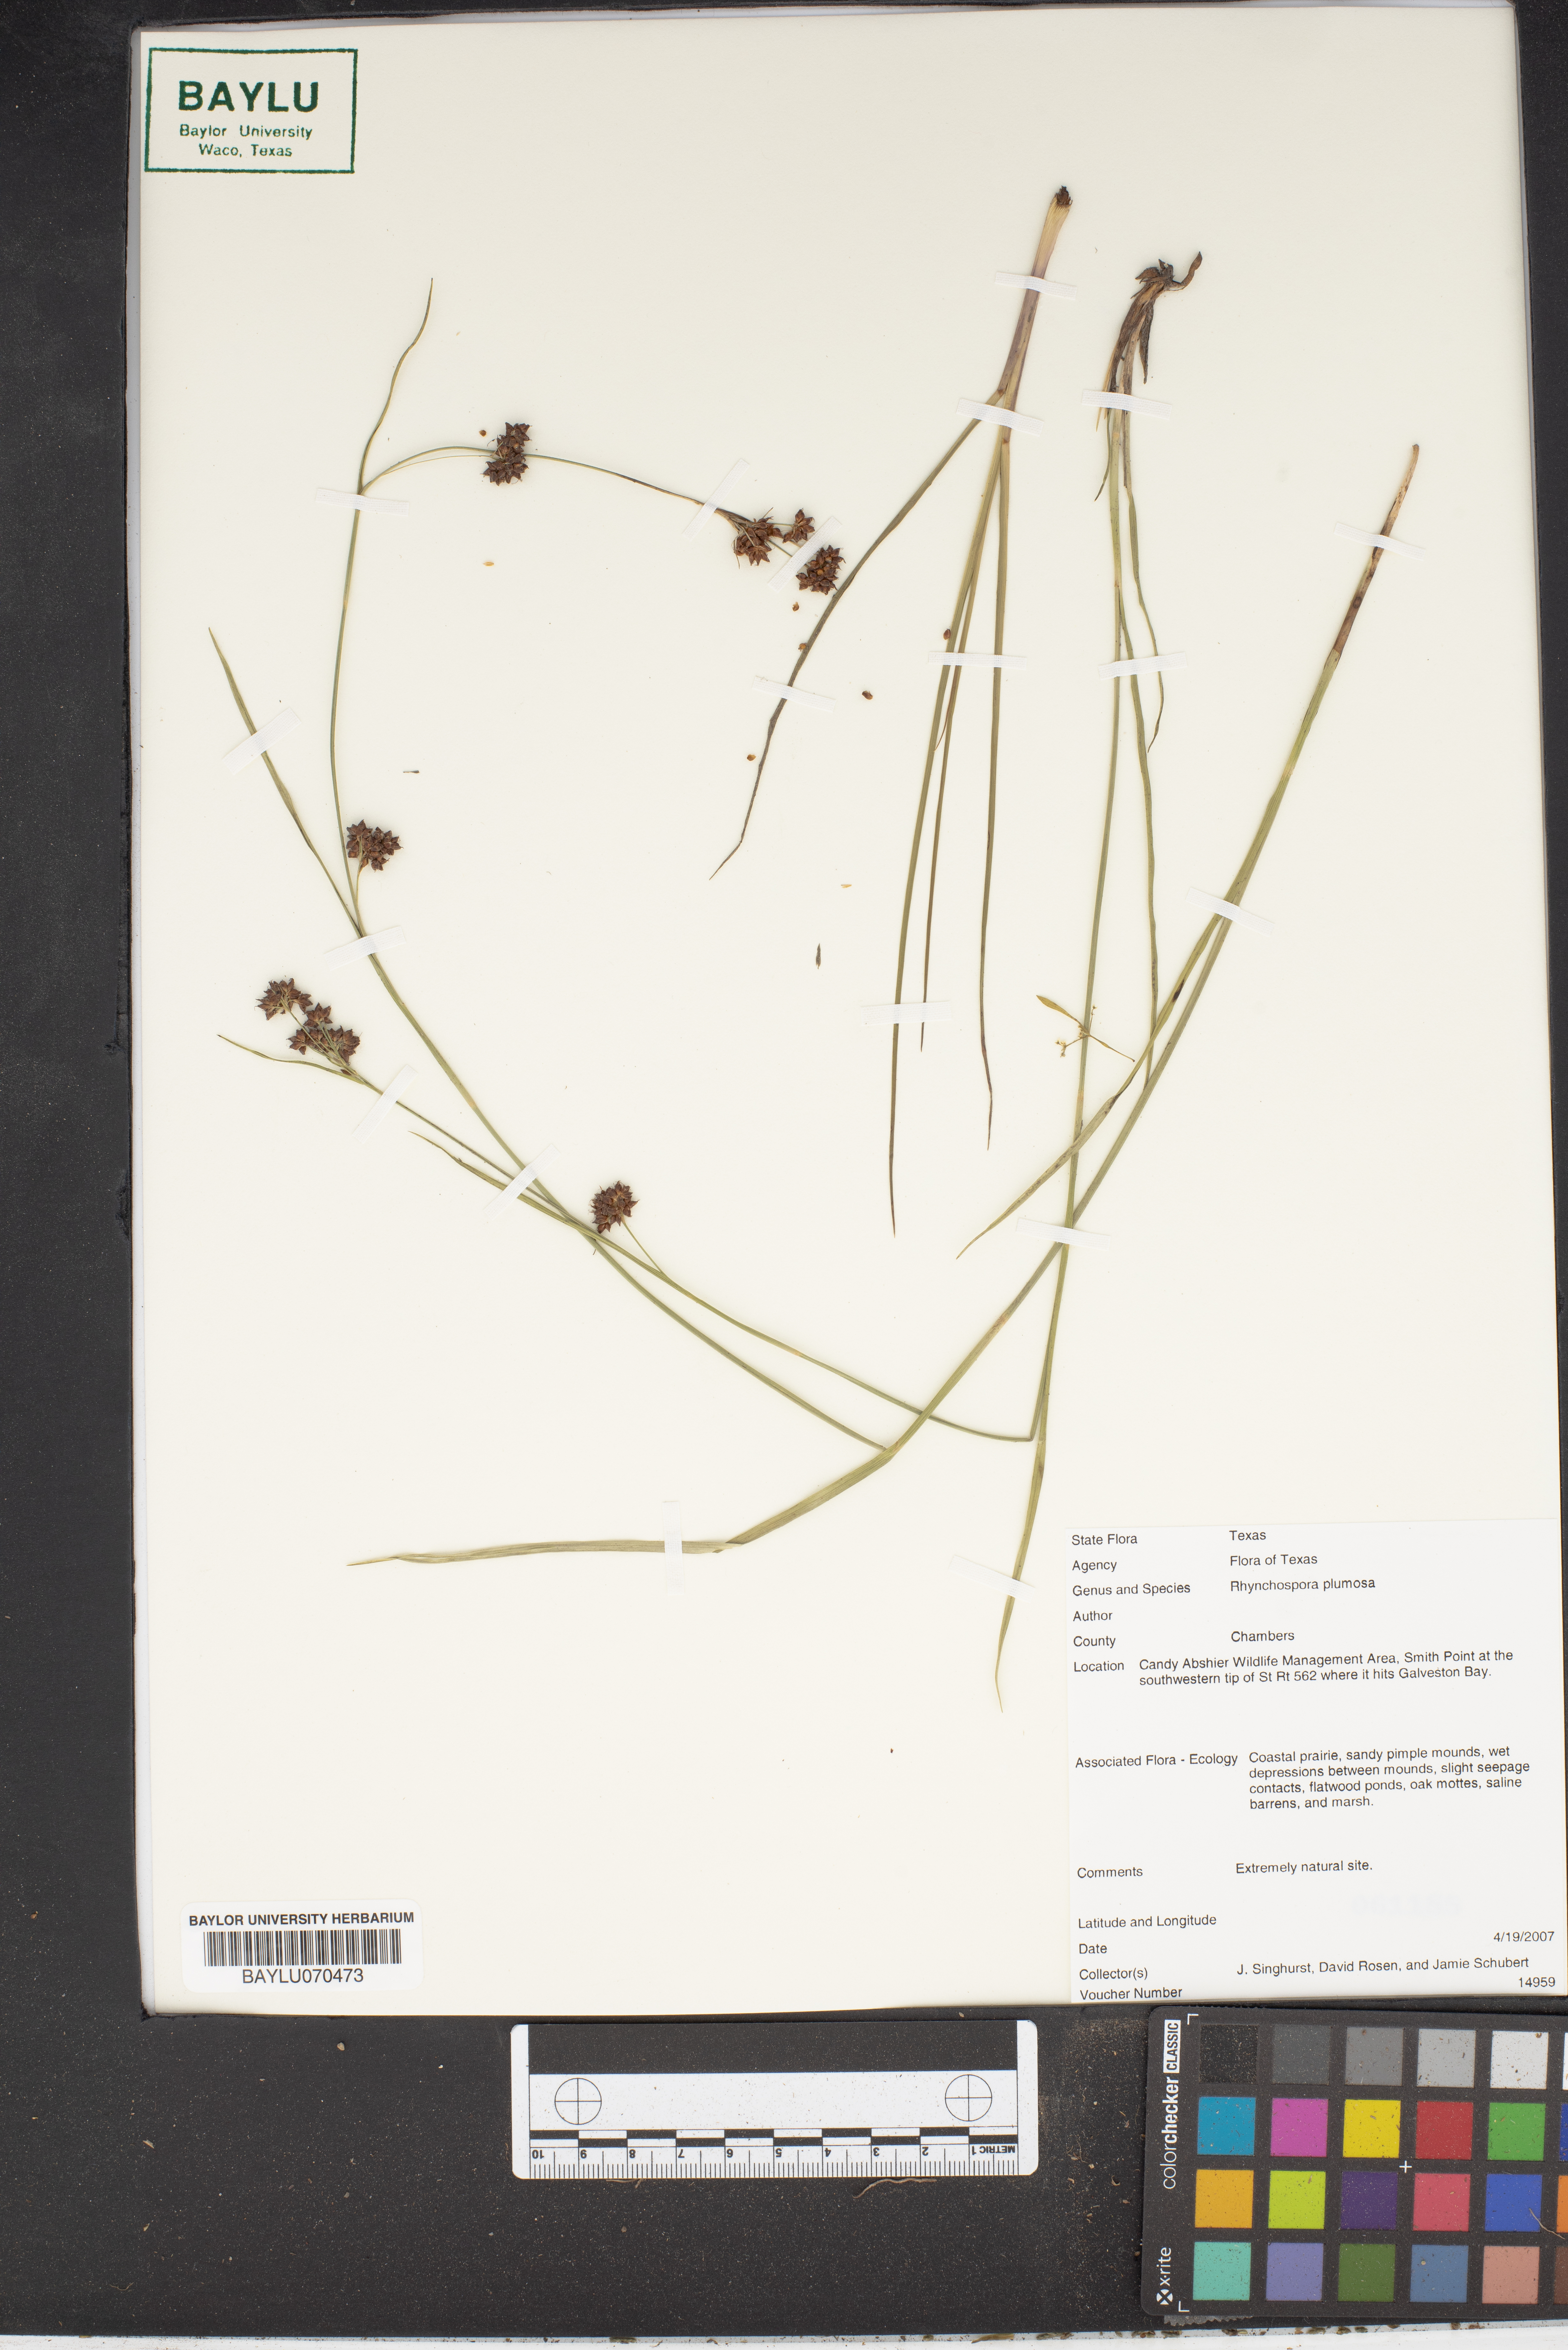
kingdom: Plantae
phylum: Tracheophyta
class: Liliopsida
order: Poales
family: Cyperaceae
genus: Rhynchospora
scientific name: Rhynchospora plumosa
